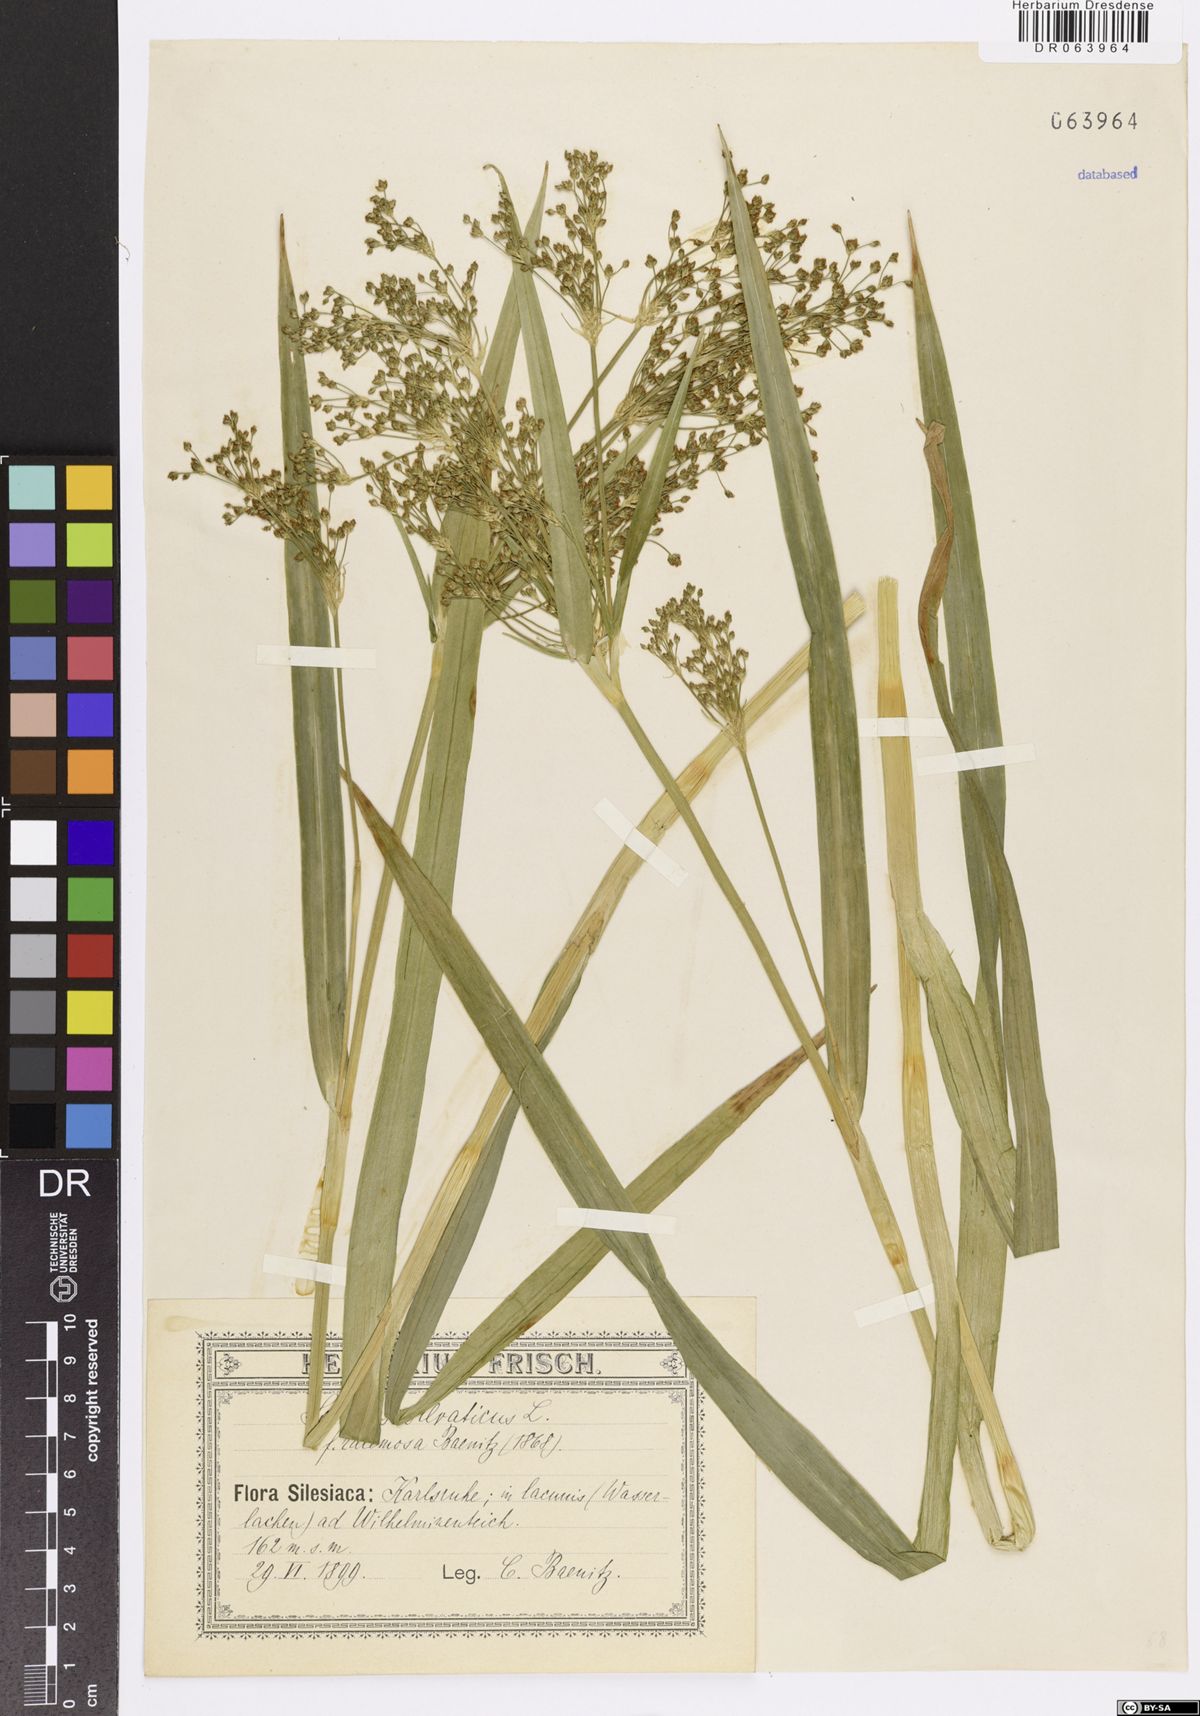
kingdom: Plantae
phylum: Tracheophyta
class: Liliopsida
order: Poales
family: Cyperaceae
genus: Scirpus
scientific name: Scirpus sylvaticus
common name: Wood club-rush
